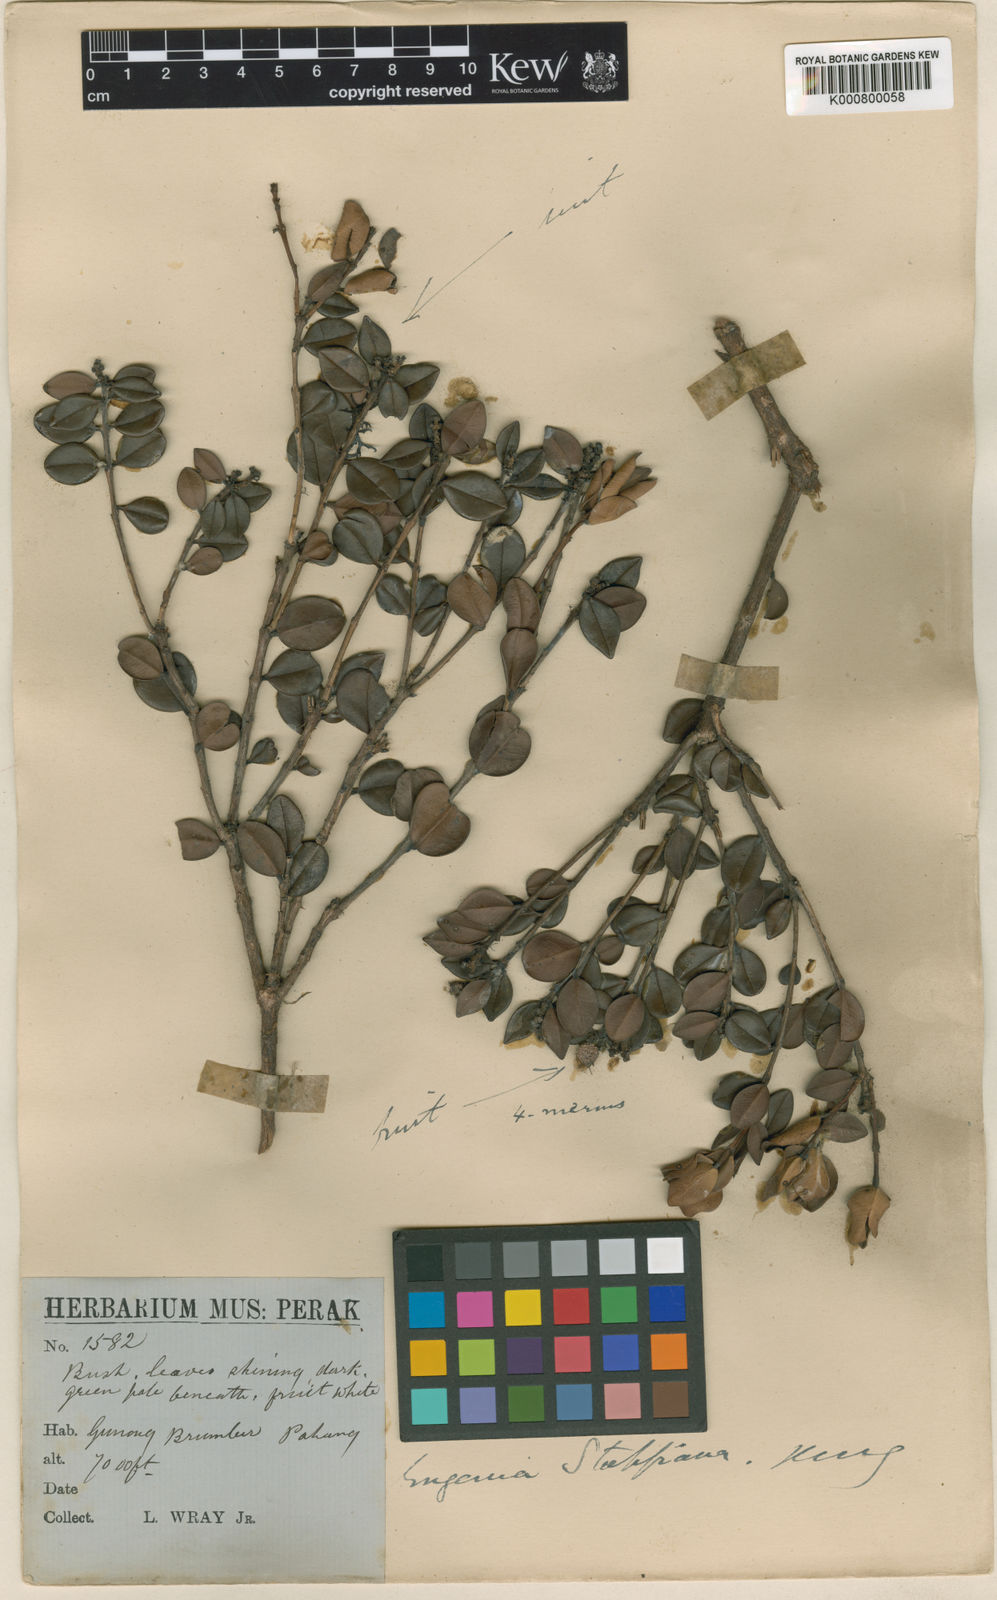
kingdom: Plantae
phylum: Tracheophyta
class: Magnoliopsida
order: Myrtales
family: Myrtaceae
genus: Syzygium
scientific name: Syzygium stapfianum
